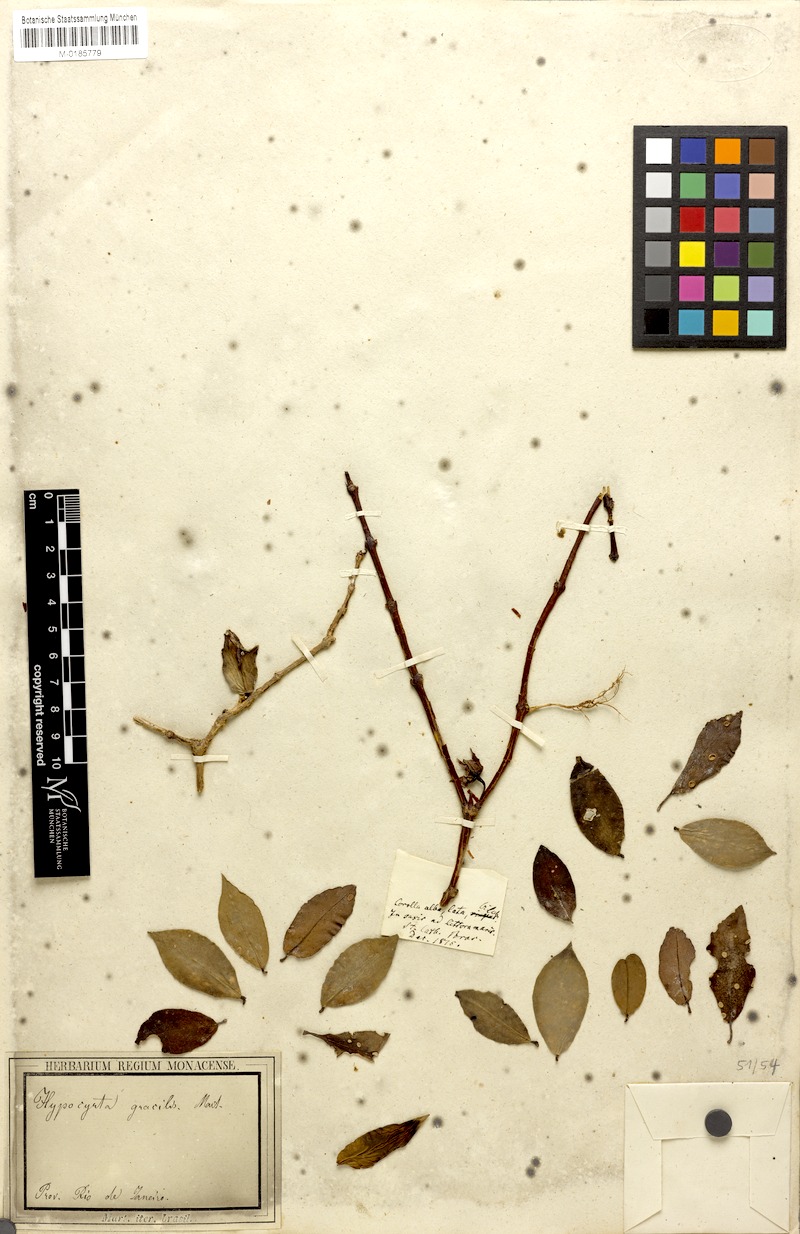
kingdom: Plantae
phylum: Tracheophyta
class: Magnoliopsida
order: Lamiales
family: Gesneriaceae
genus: Codonanthe
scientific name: Codonanthe gracilis
